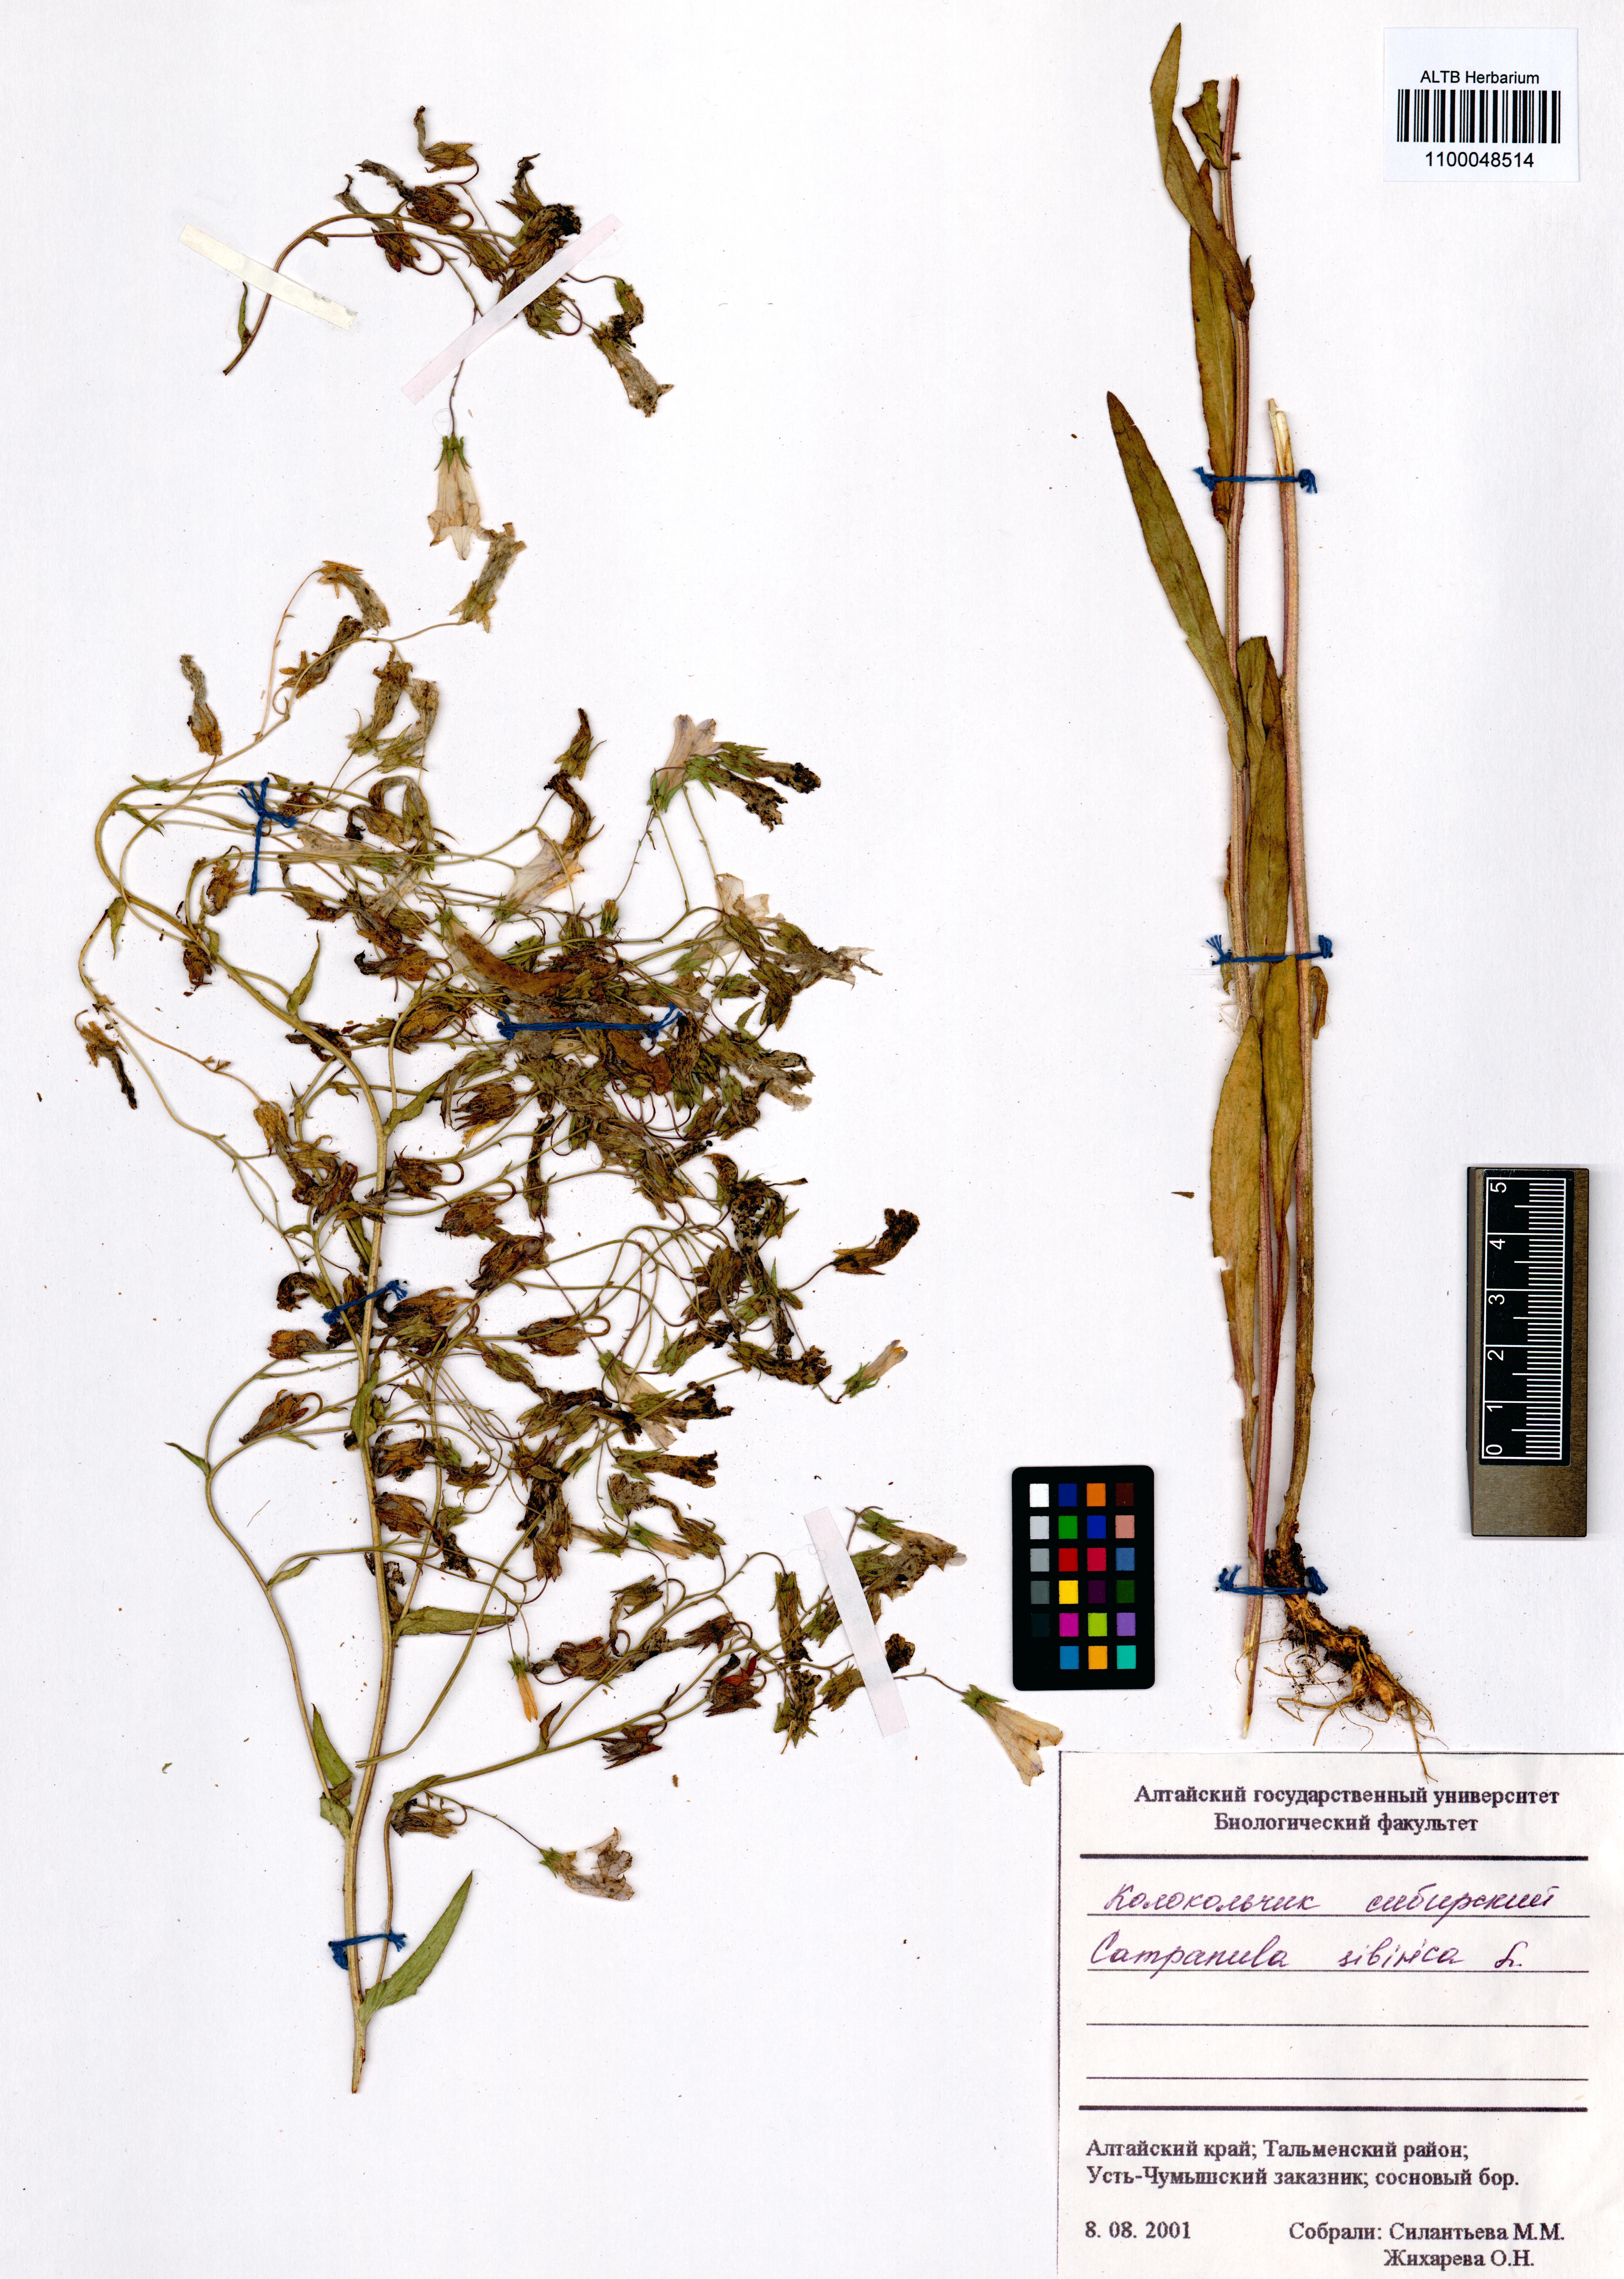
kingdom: Plantae
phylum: Tracheophyta
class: Magnoliopsida
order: Asterales
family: Campanulaceae
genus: Campanula
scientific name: Campanula sibirica
